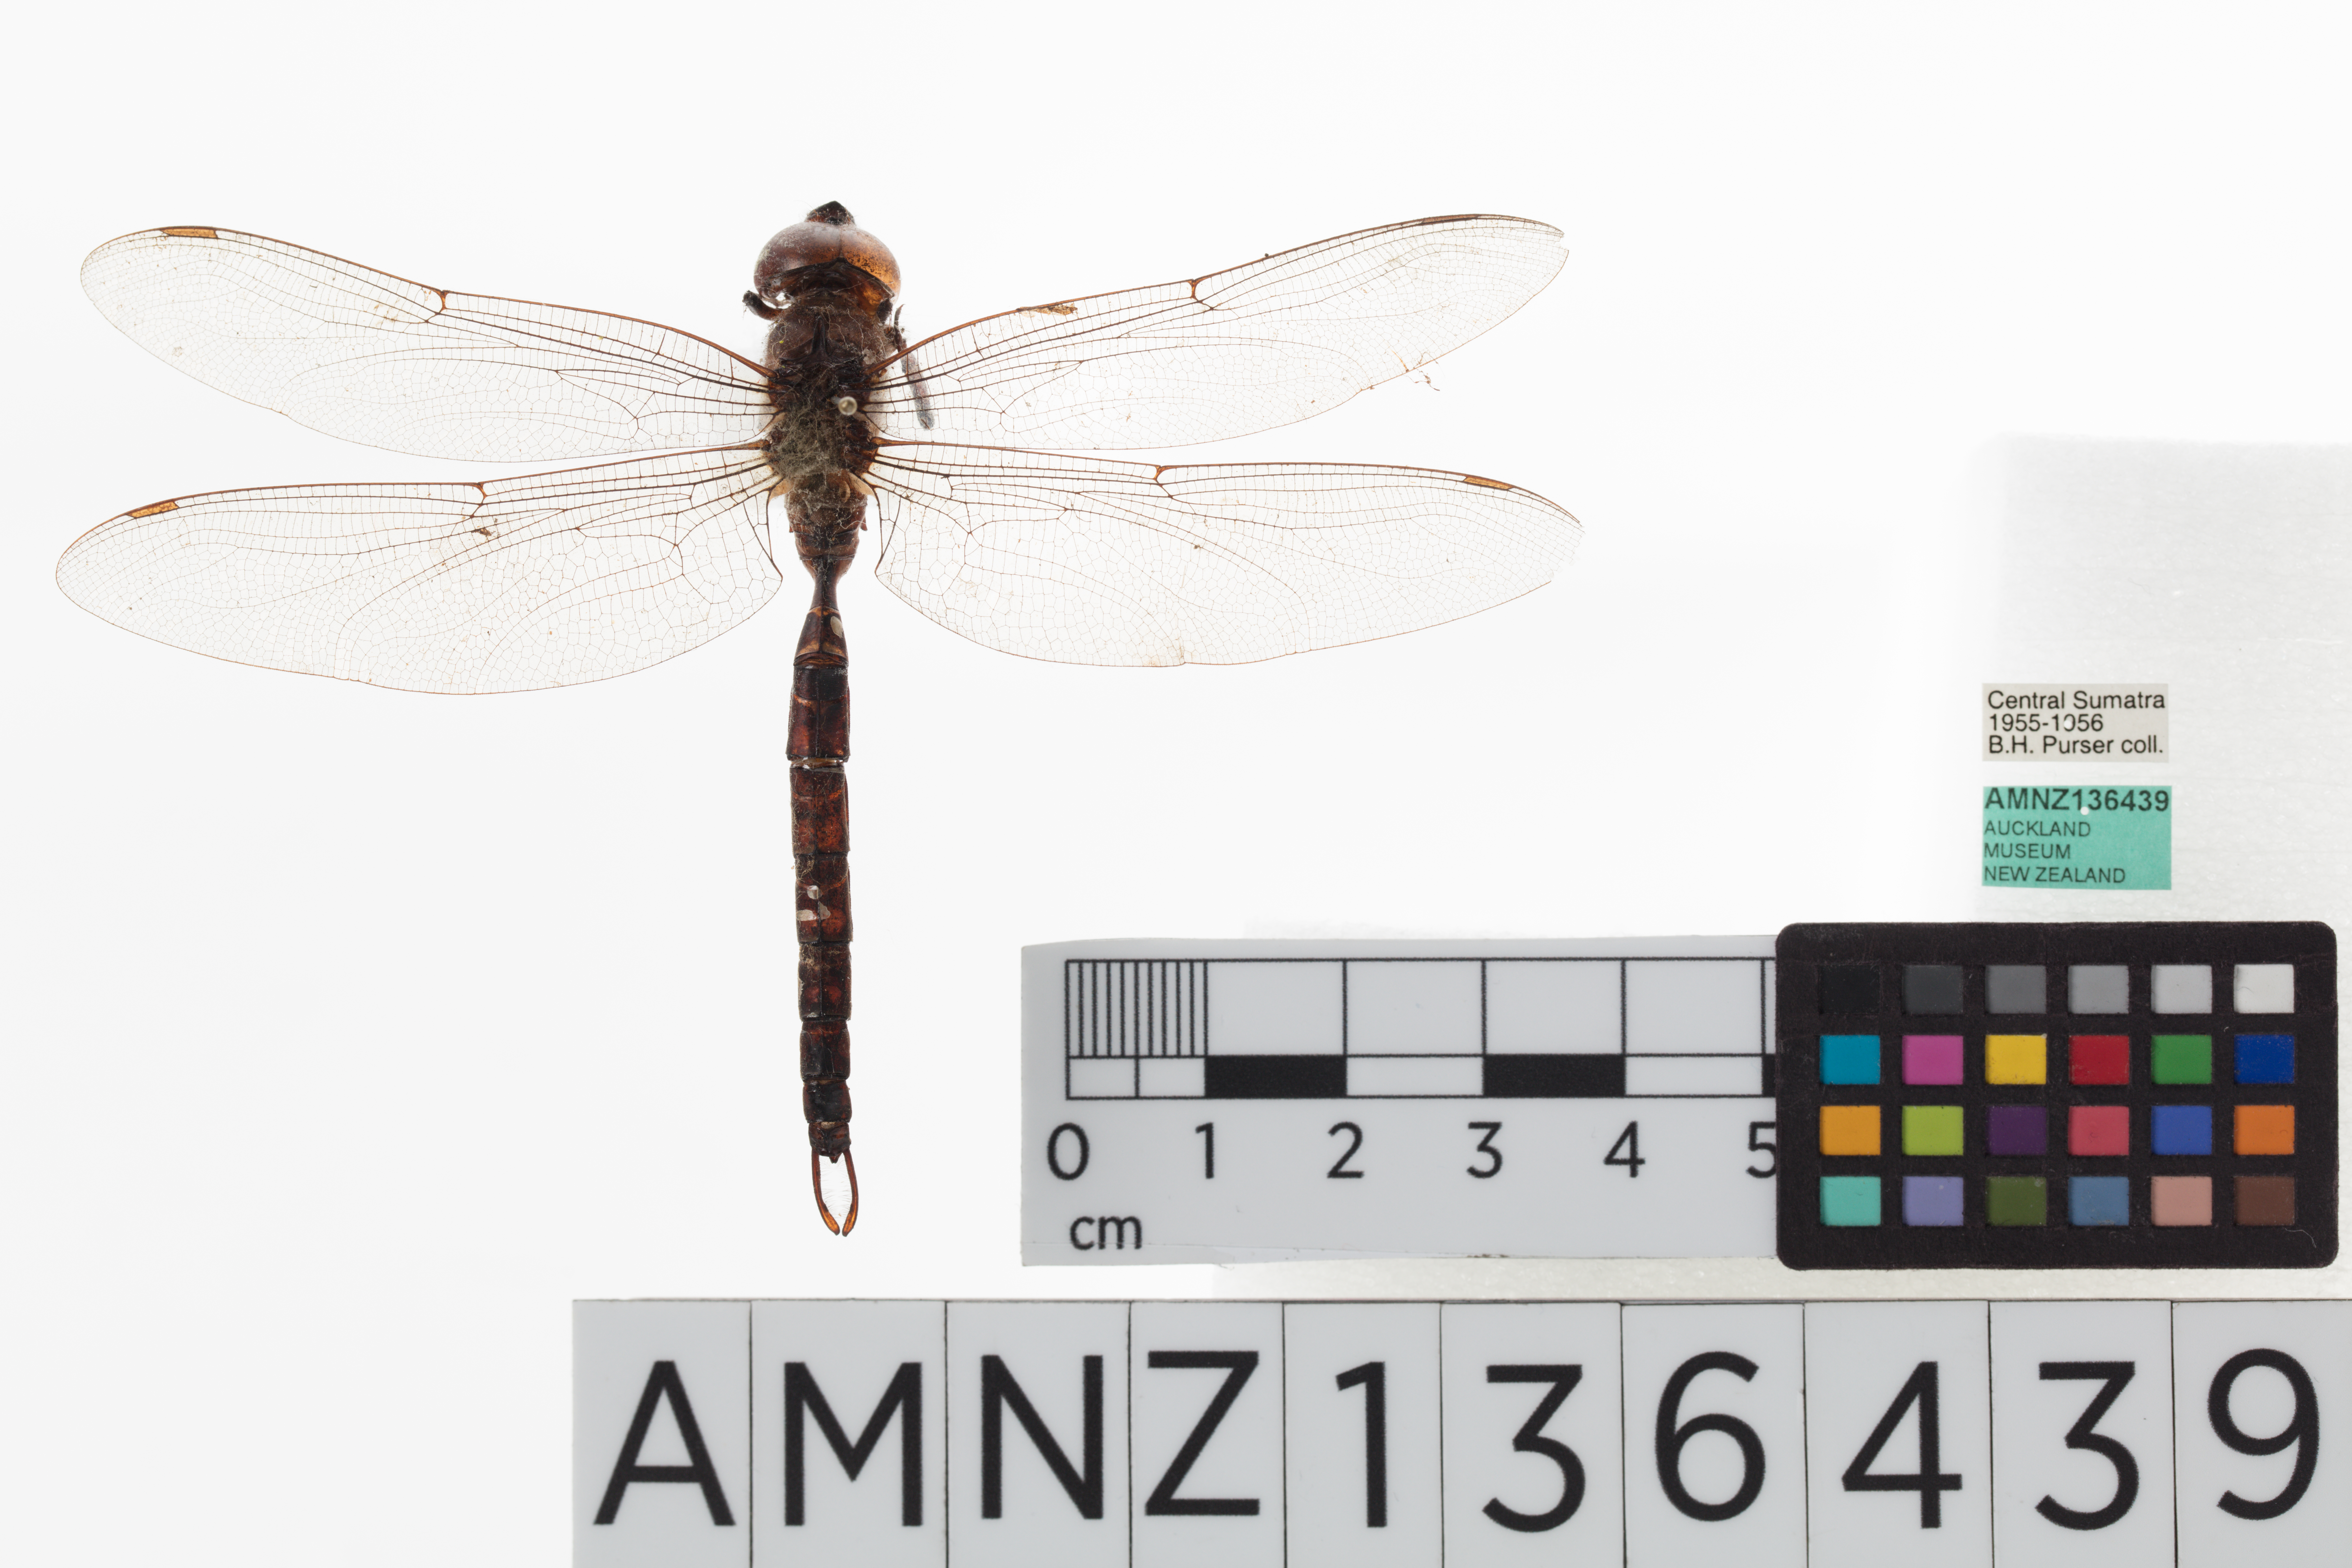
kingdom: Animalia
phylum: Arthropoda
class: Insecta
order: Odonata
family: Aeshnidae
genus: Heliaeschna
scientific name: Heliaeschna crassa
